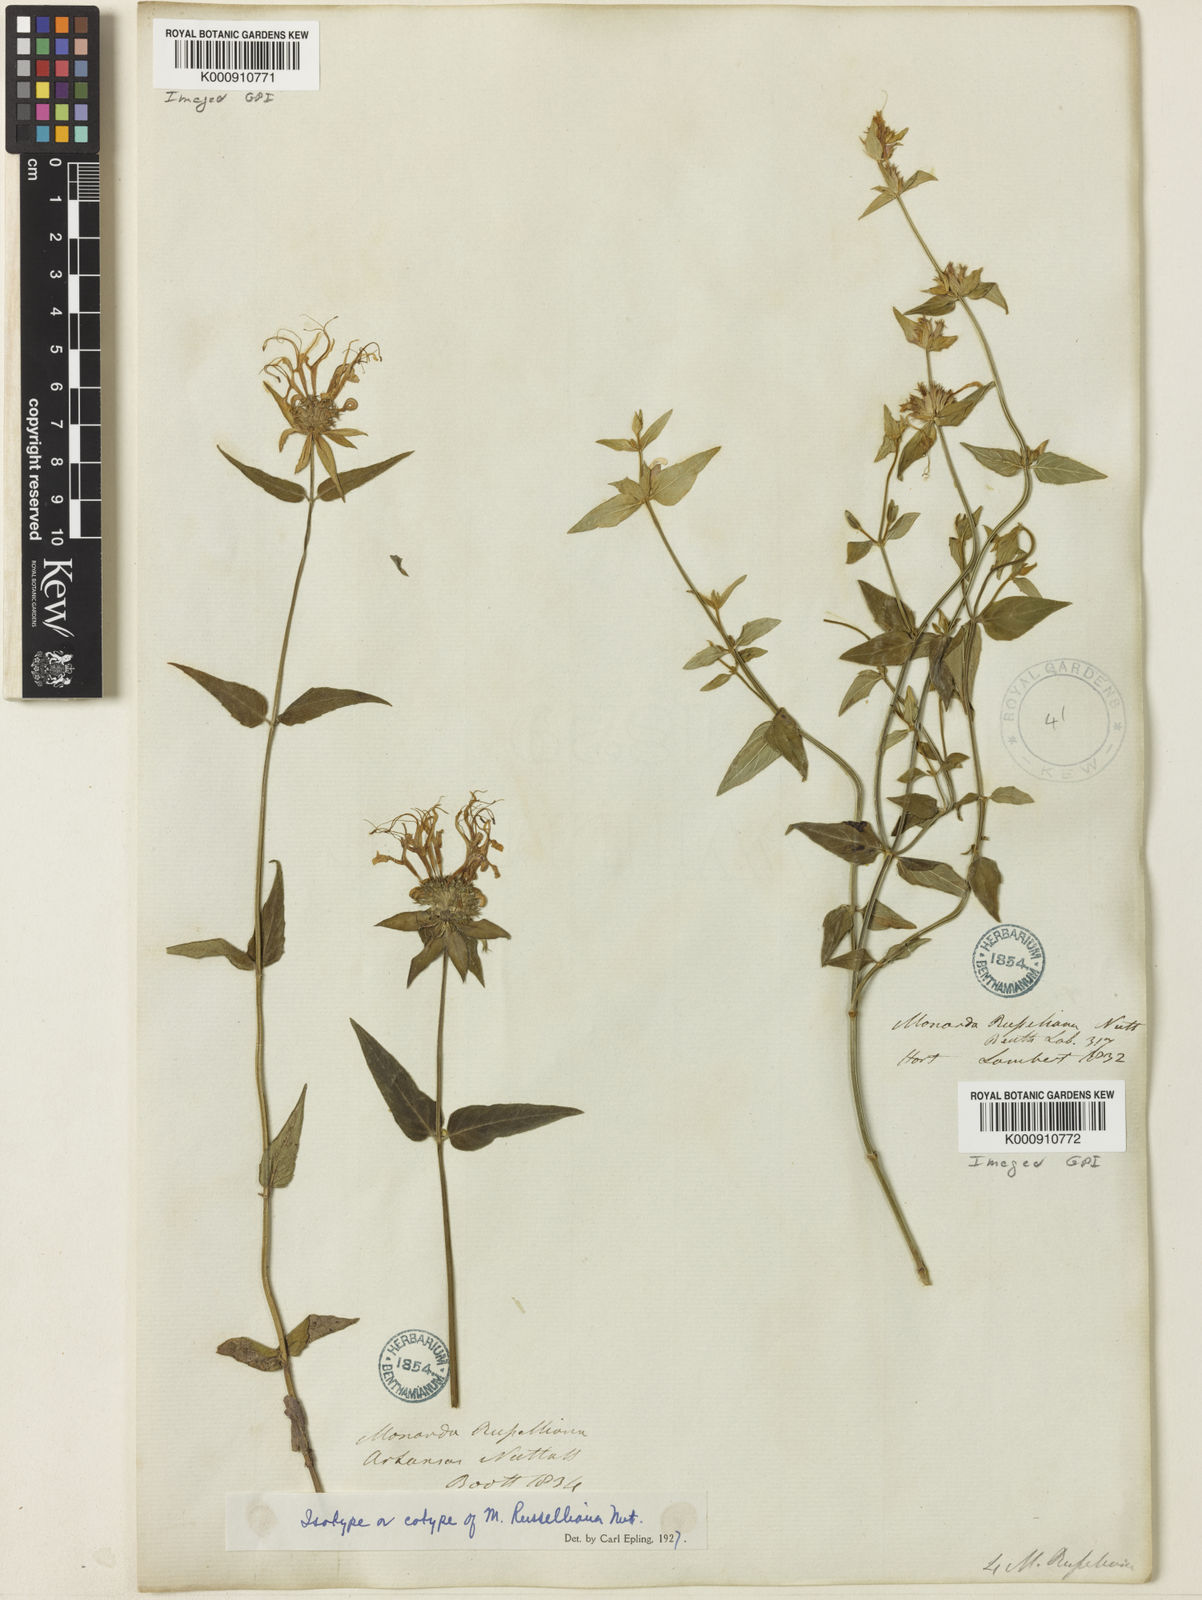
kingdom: Plantae
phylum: Tracheophyta
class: Magnoliopsida
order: Lamiales
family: Lamiaceae
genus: Monarda
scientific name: Monarda
